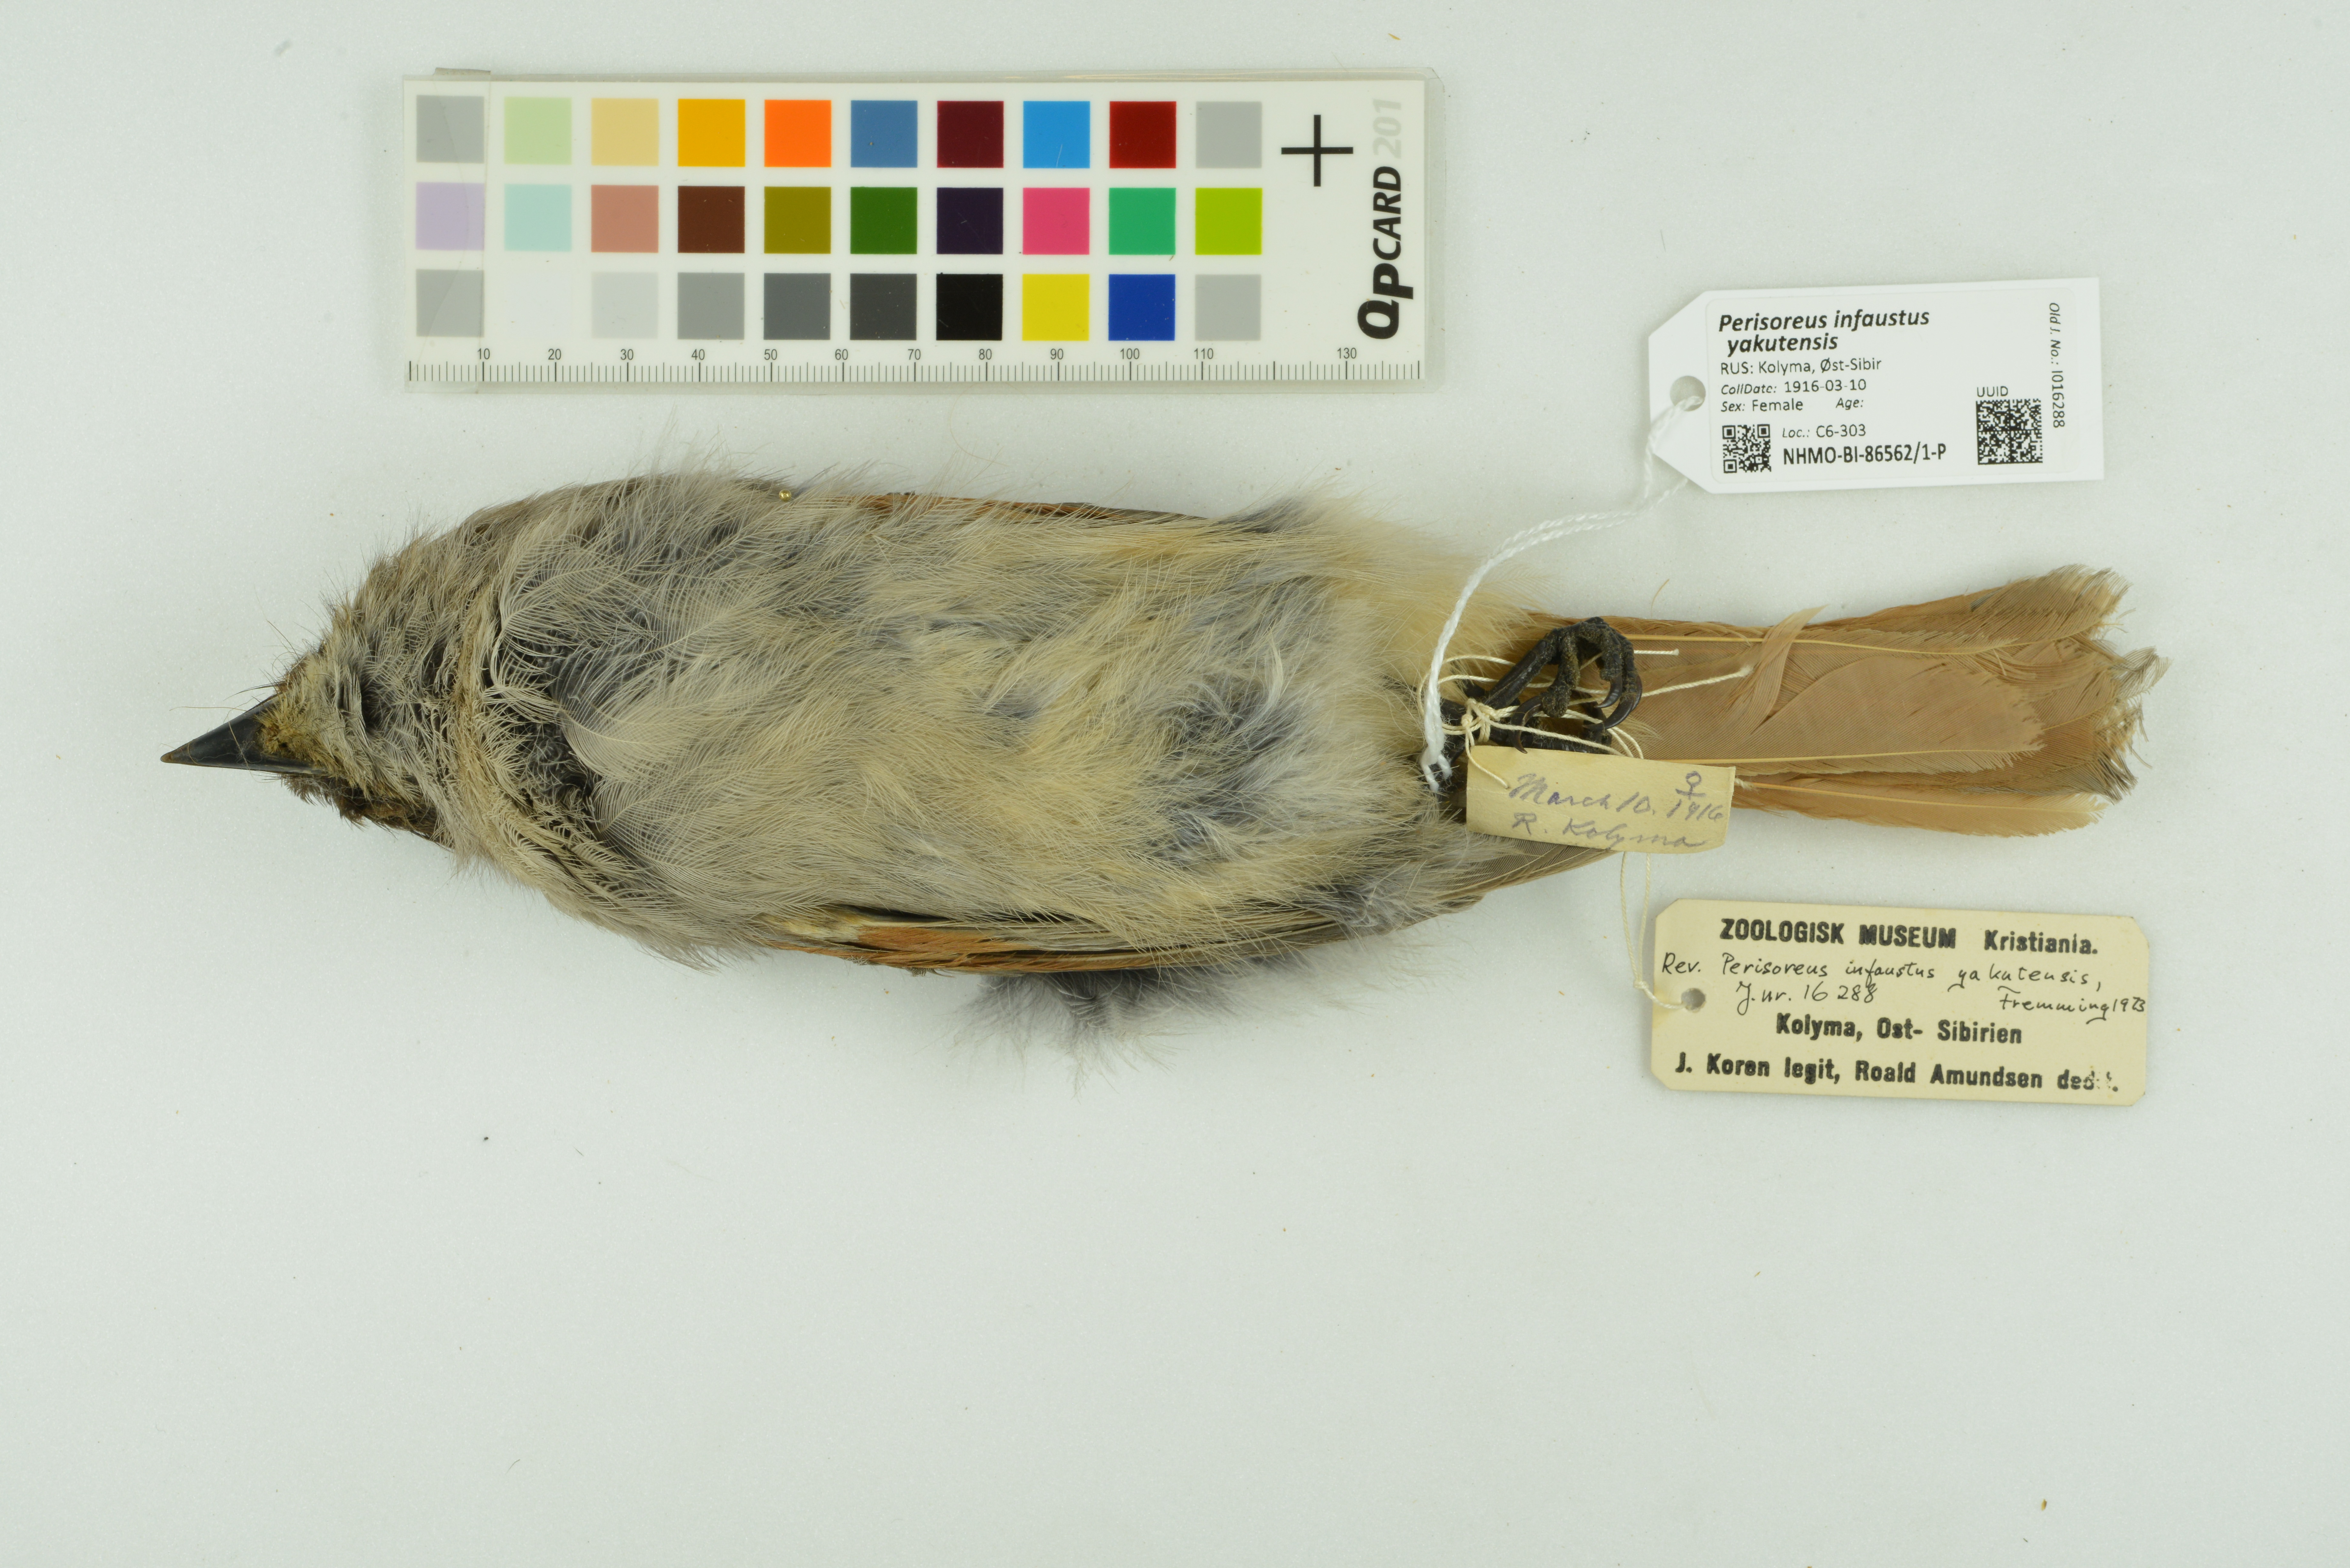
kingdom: Animalia
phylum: Chordata
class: Aves
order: Passeriformes
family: Corvidae
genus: Perisoreus
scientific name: Perisoreus infaustus
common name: Siberian jay
